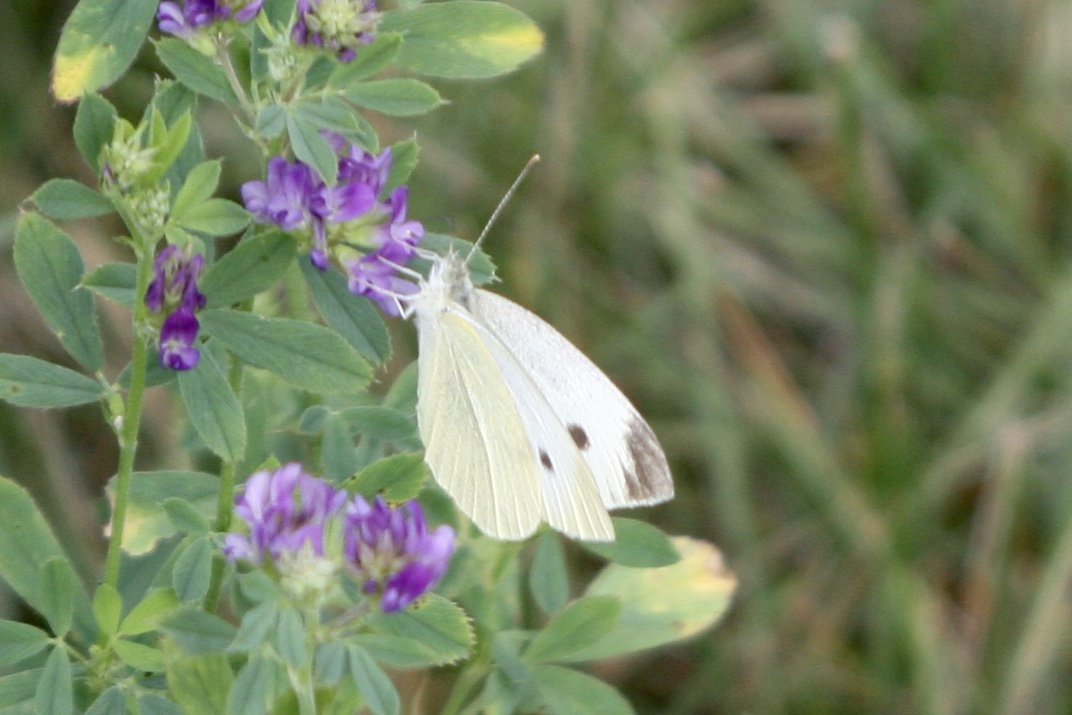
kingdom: Animalia
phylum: Arthropoda
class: Insecta
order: Lepidoptera
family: Pieridae
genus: Pieris
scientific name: Pieris rapae
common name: Cabbage White
